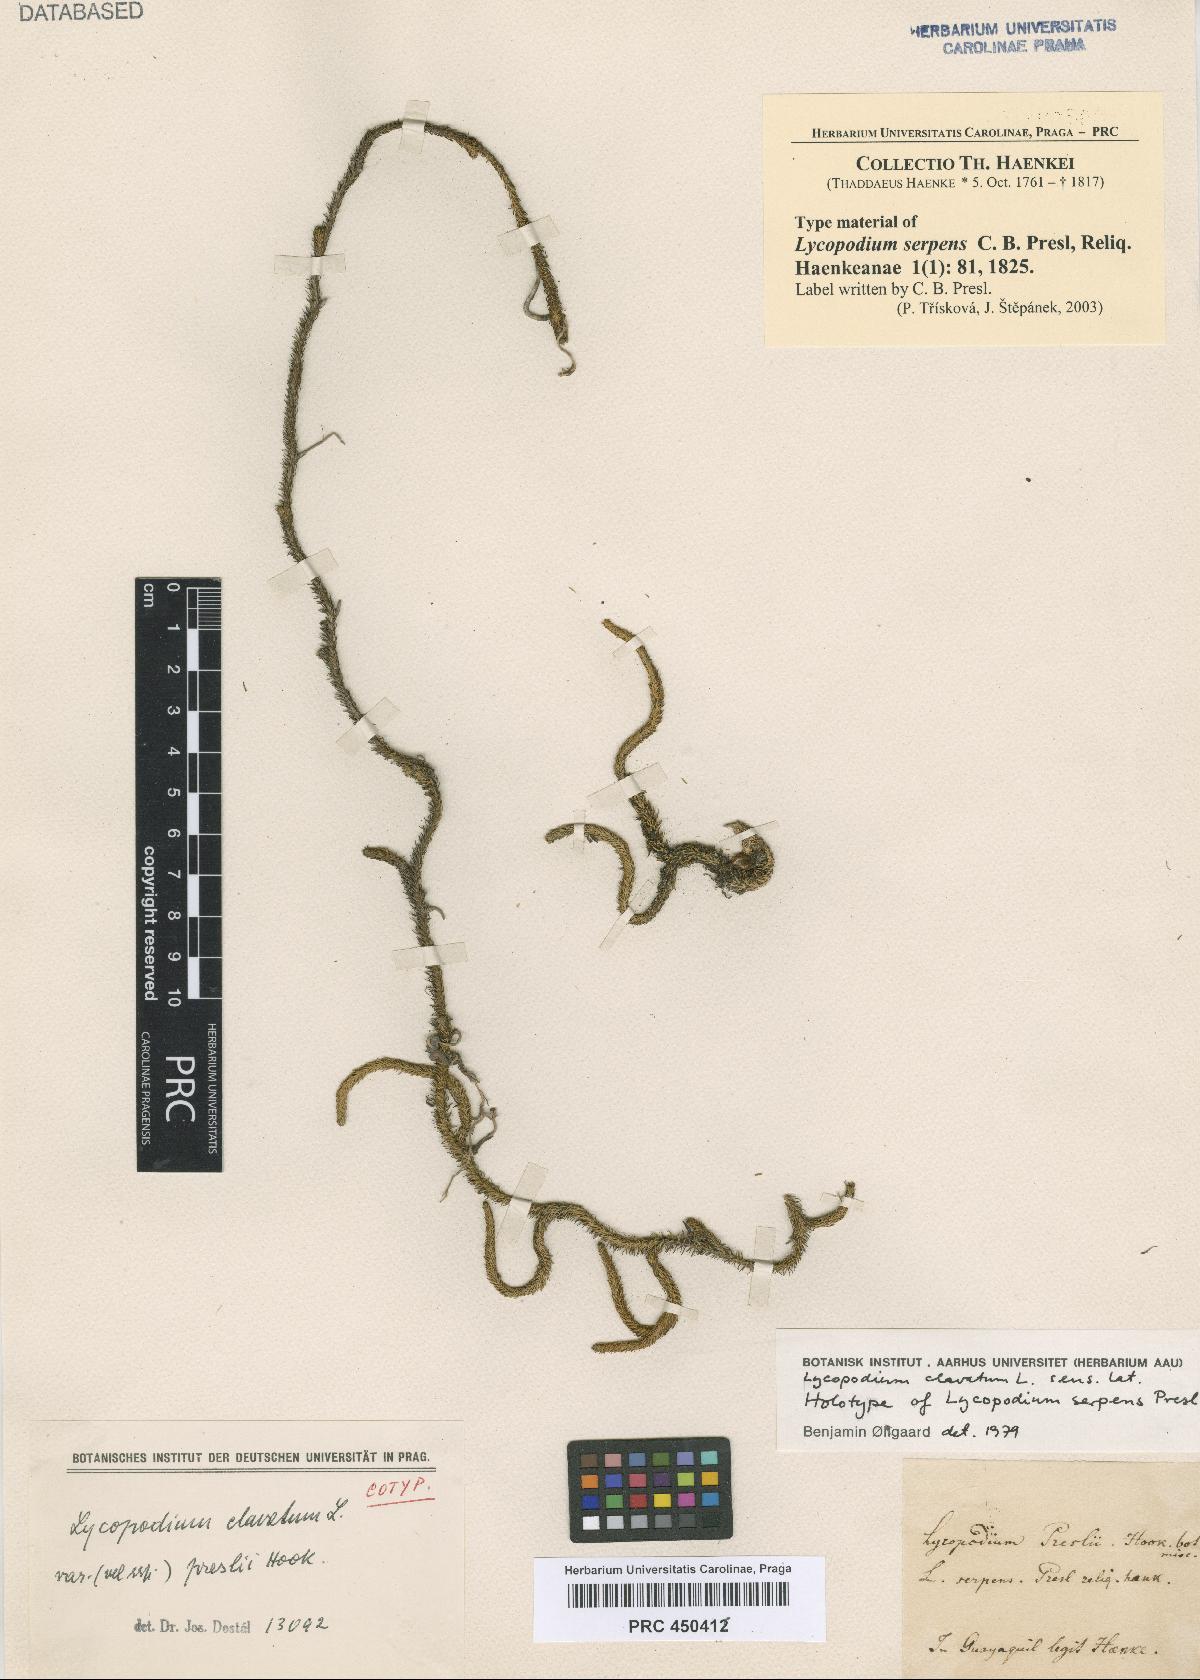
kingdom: Plantae
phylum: Tracheophyta
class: Lycopodiopsida
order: Lycopodiales
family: Lycopodiaceae
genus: Lycopodium
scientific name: Lycopodium clavatum
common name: Stag's-horn clubmoss
